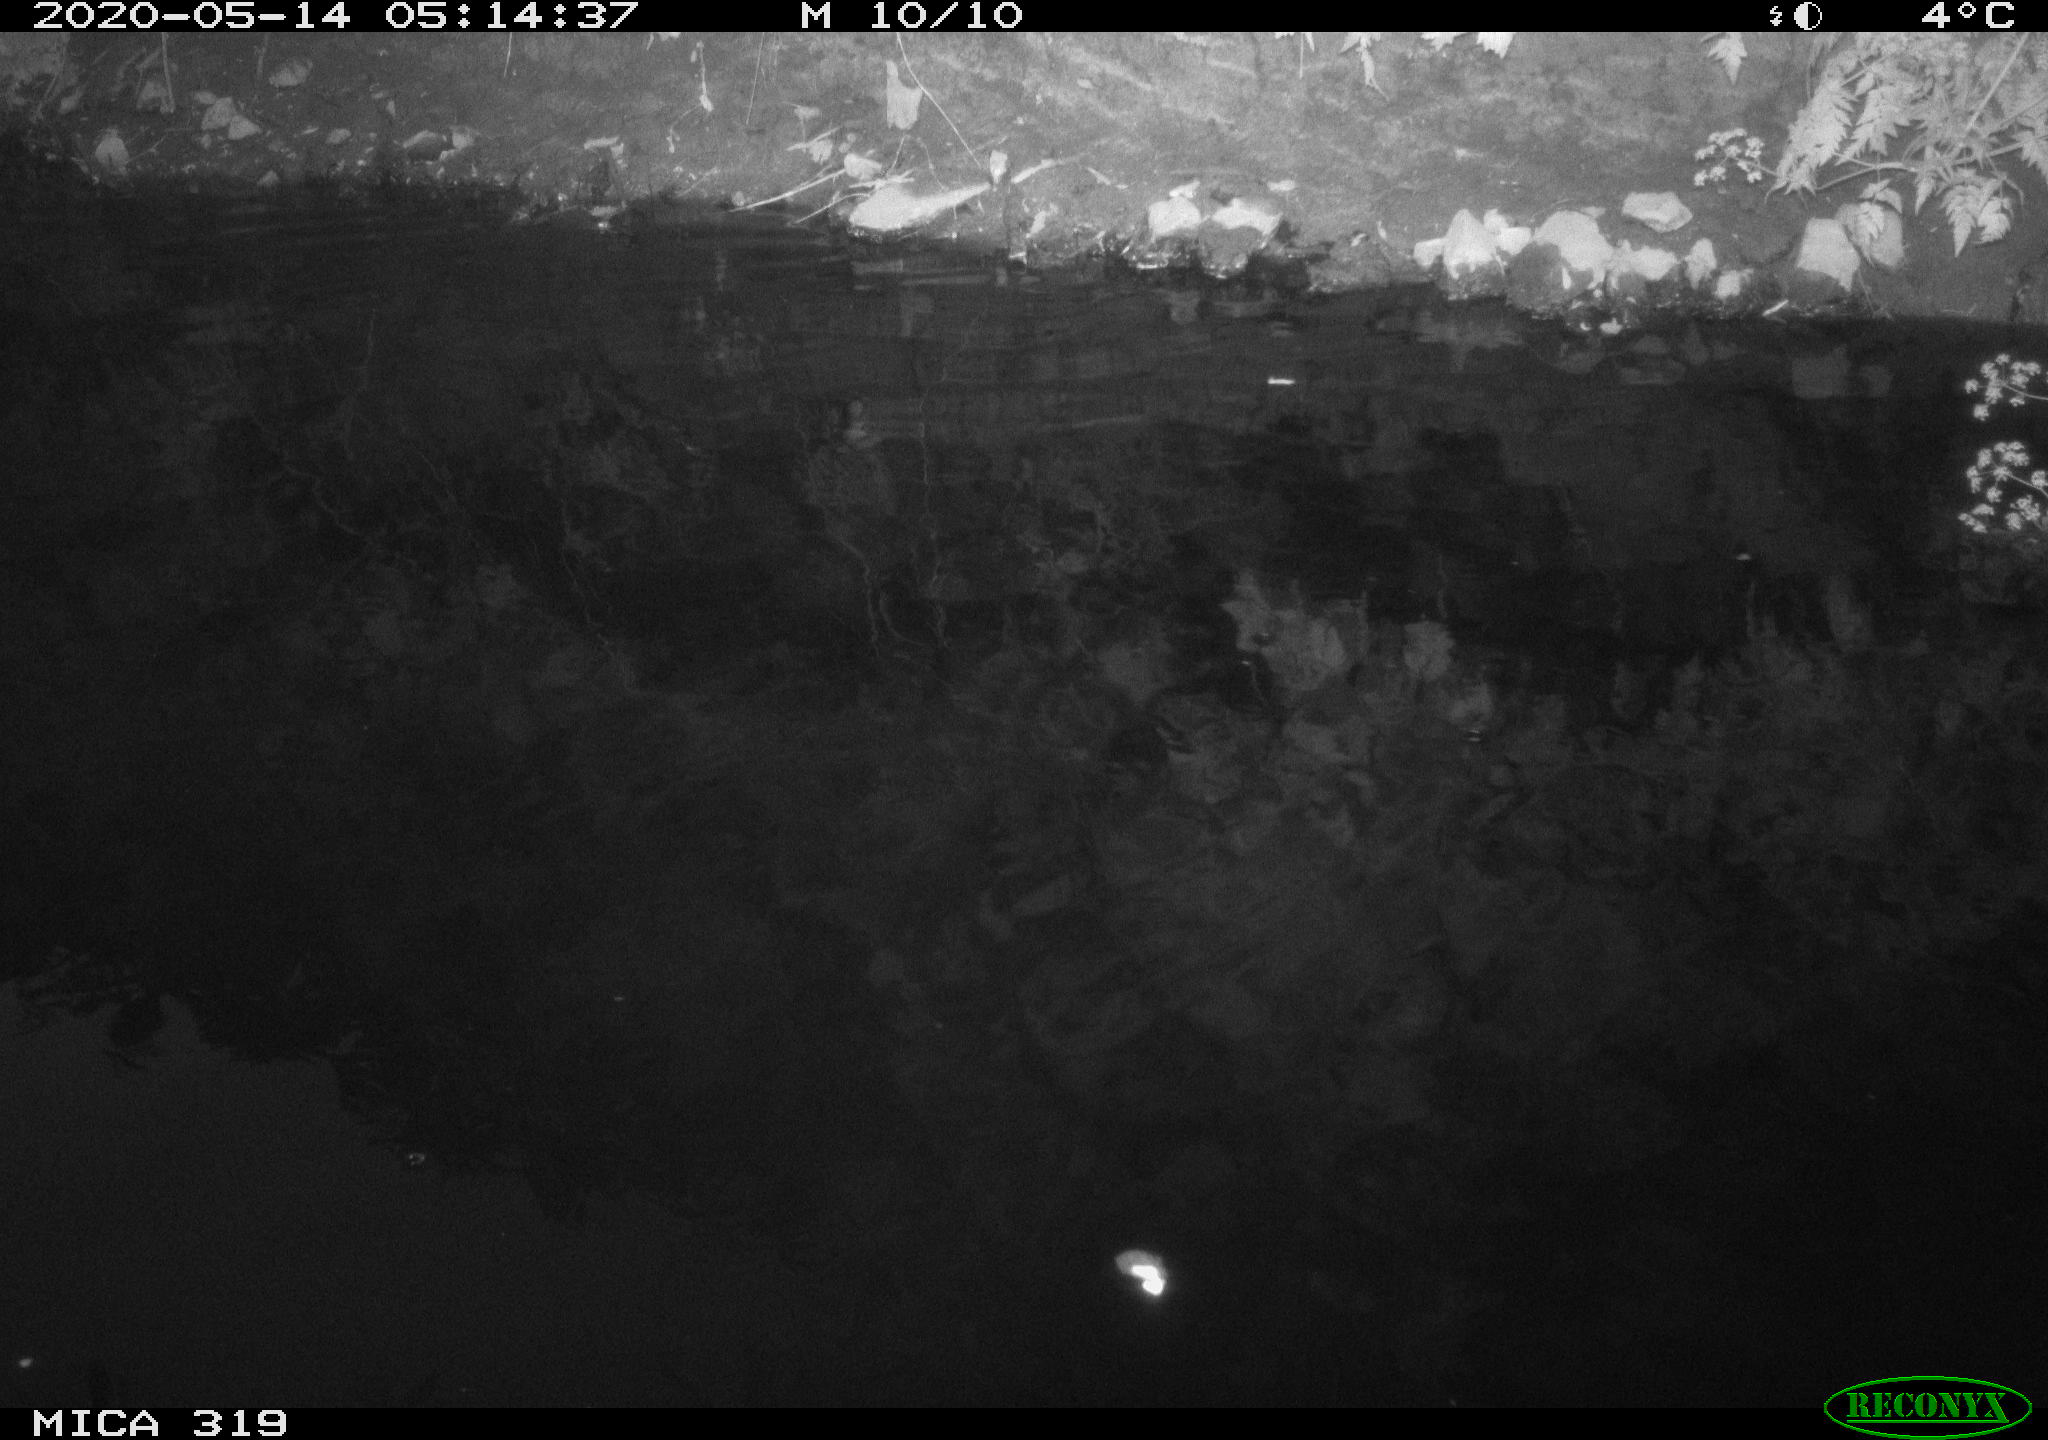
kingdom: Animalia
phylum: Chordata
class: Aves
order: Anseriformes
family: Anatidae
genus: Anas
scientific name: Anas platyrhynchos
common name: Mallard
